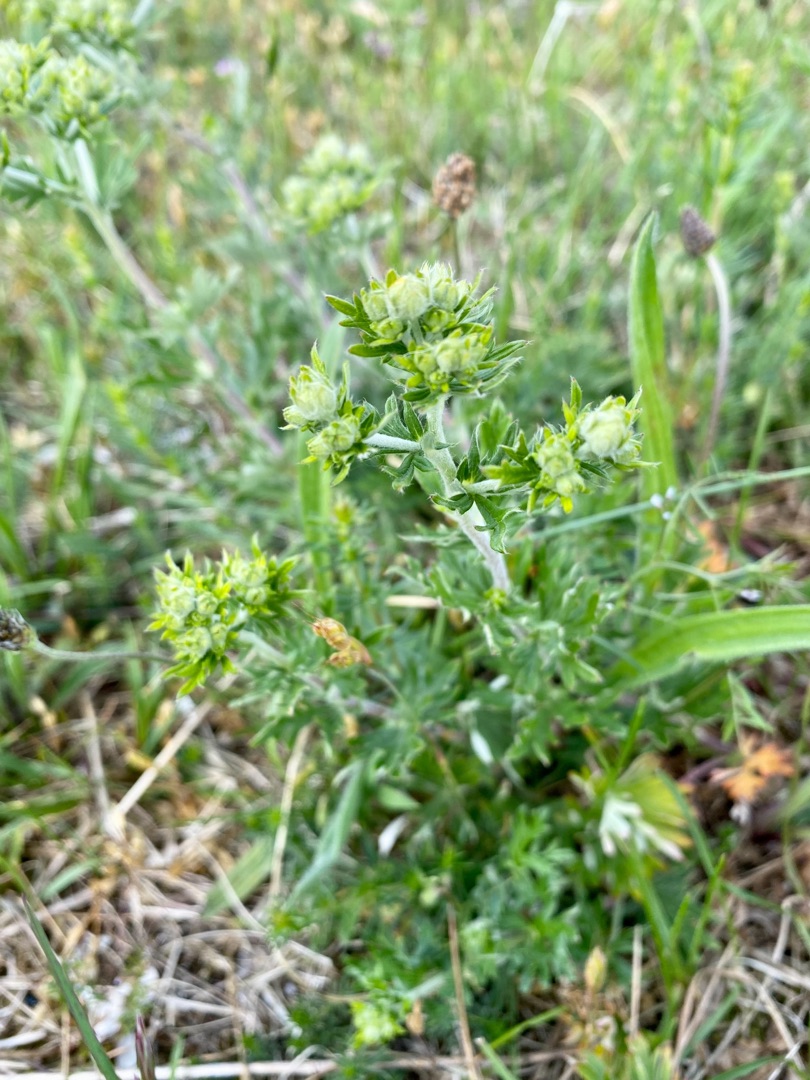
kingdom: Plantae
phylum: Tracheophyta
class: Magnoliopsida
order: Rosales
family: Rosaceae
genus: Potentilla
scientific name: Potentilla argentea
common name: Sølv-potentil
